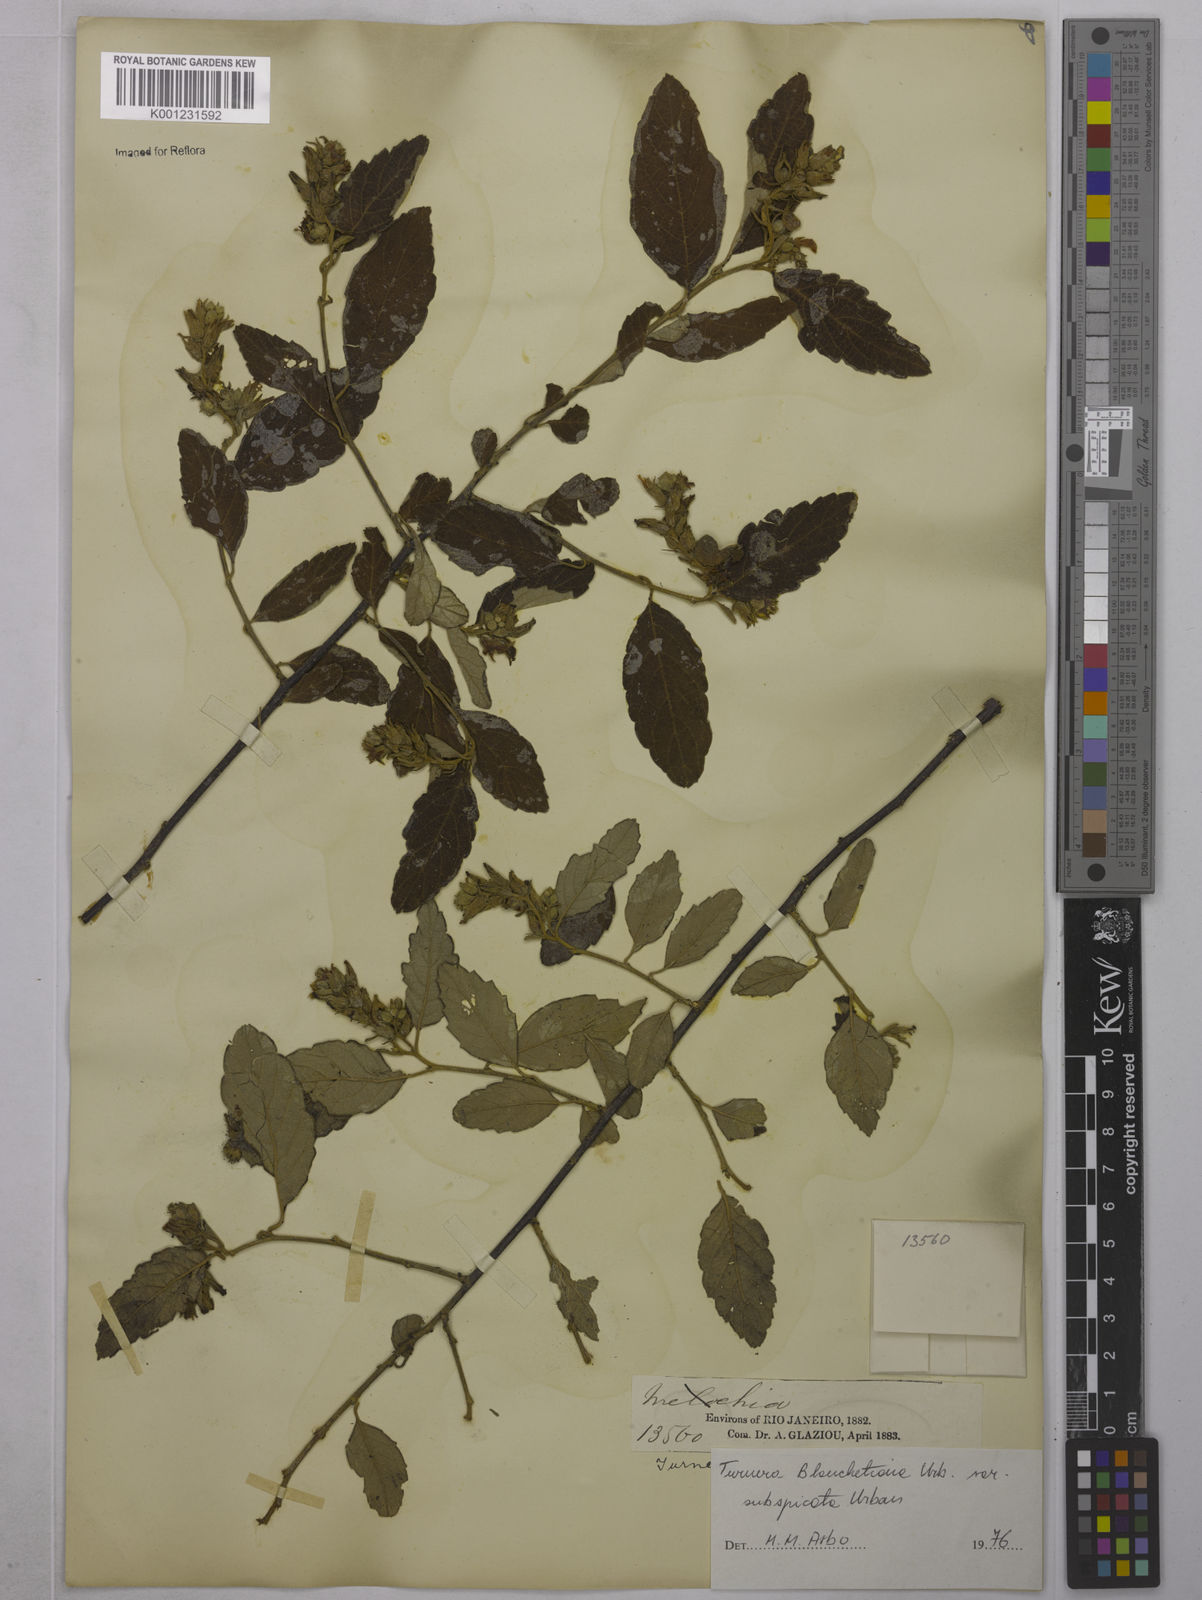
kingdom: Plantae
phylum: Tracheophyta
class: Magnoliopsida
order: Malpighiales
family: Turneraceae
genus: Turnera
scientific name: Turnera blanchetiana
